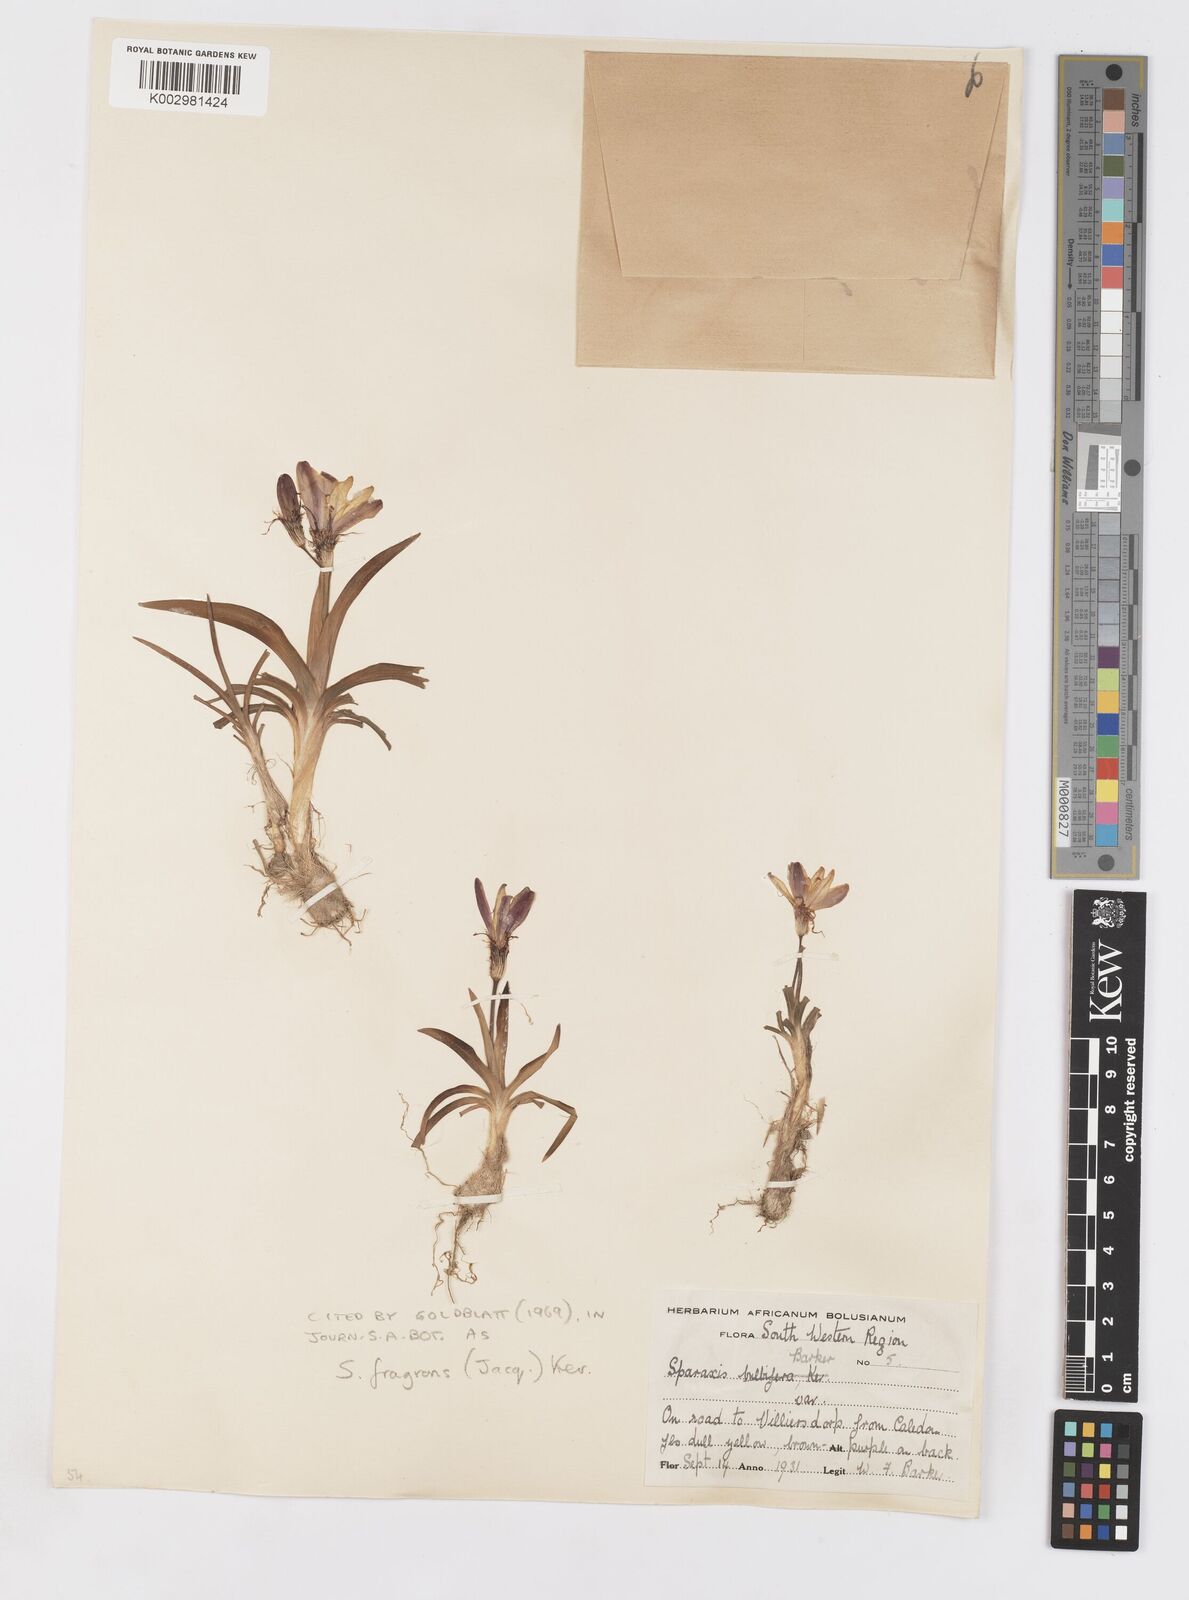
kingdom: Plantae
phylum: Tracheophyta
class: Liliopsida
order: Asparagales
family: Iridaceae
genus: Sparaxis
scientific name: Sparaxis fragrans
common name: Fragrant wandflower
